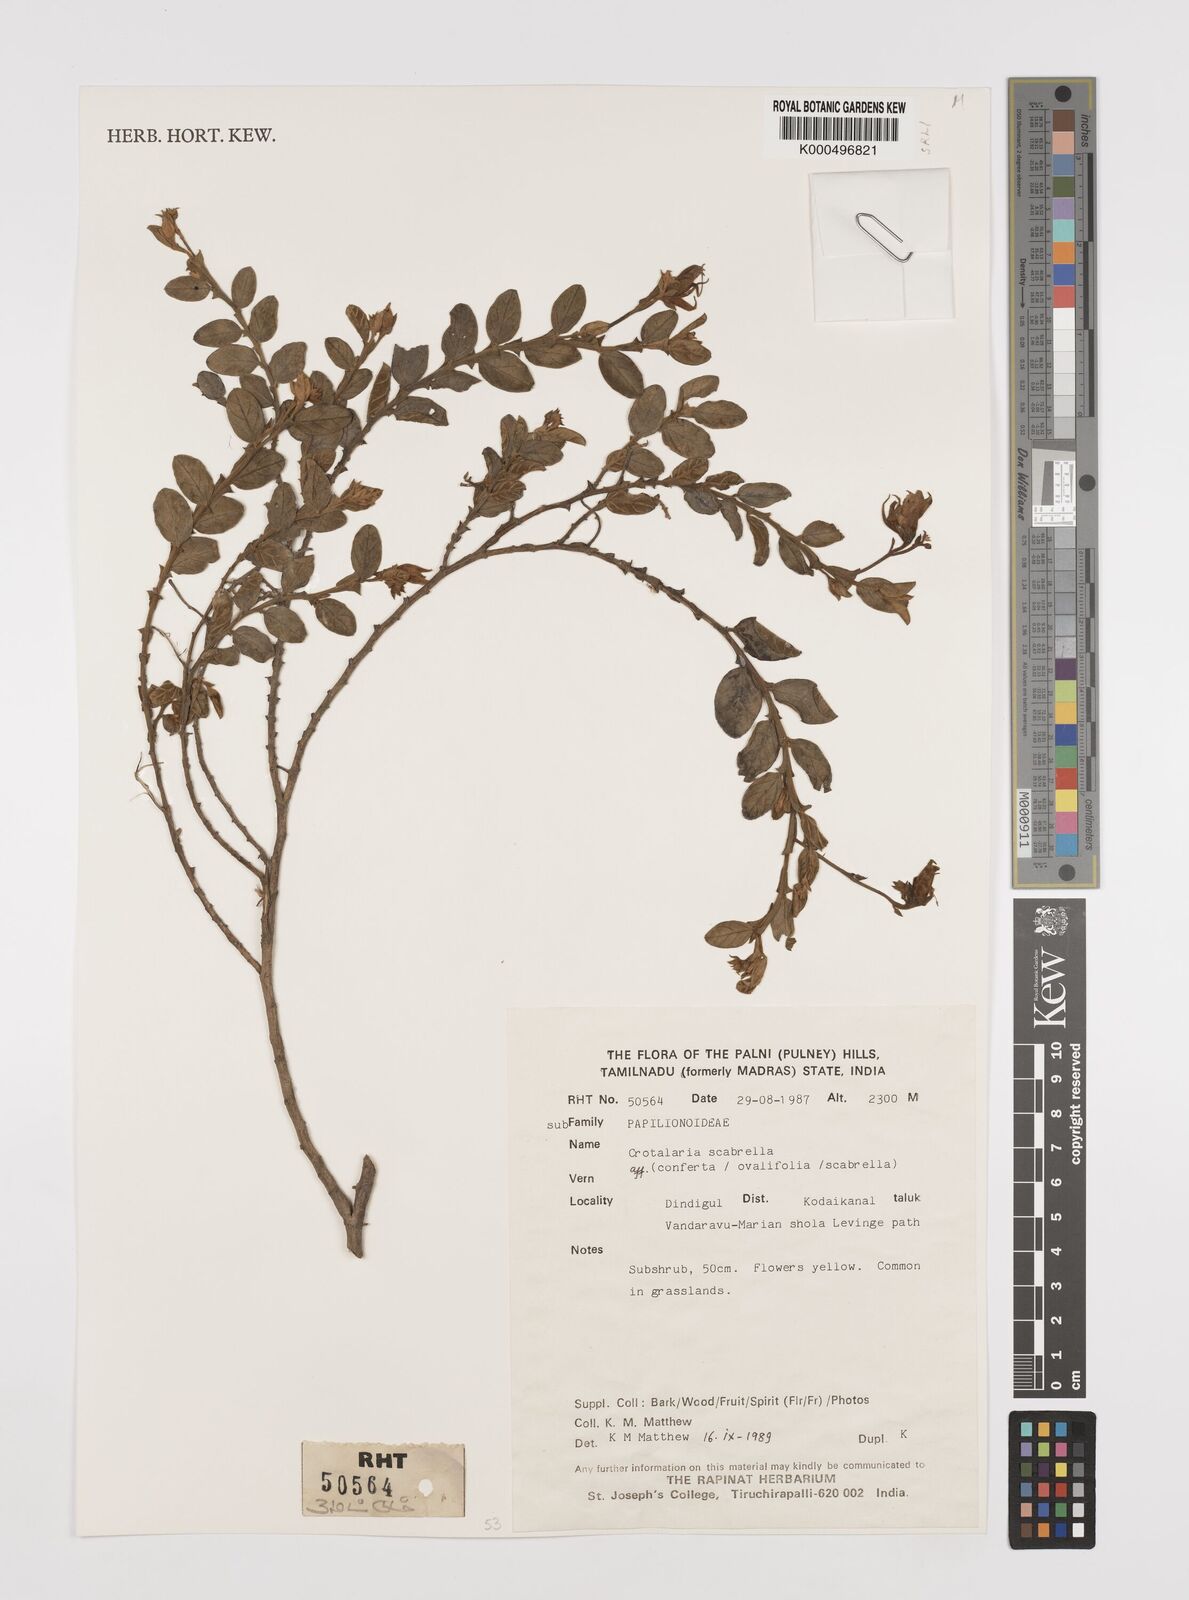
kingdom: Plantae
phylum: Tracheophyta
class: Magnoliopsida
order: Fabales
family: Fabaceae
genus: Crotalaria
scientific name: Crotalaria scabrella
